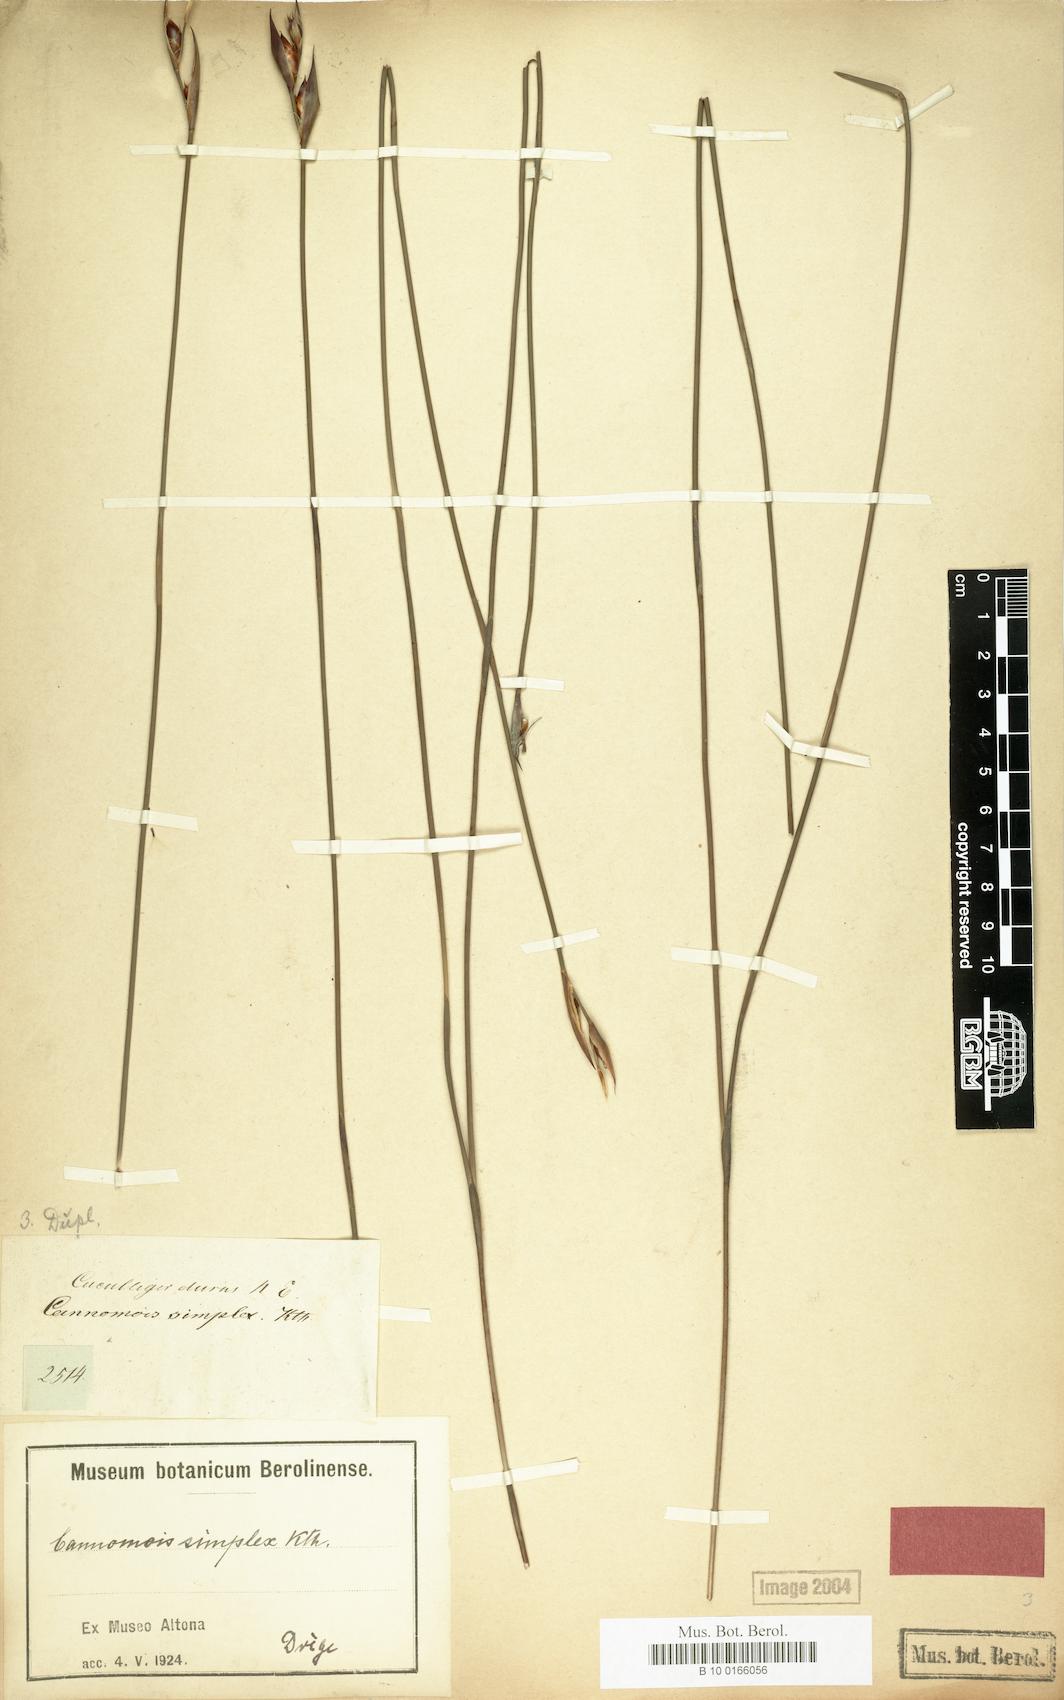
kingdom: Plantae
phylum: Tracheophyta
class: Liliopsida
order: Poales
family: Restionaceae
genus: Cannomois
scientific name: Cannomois parviflora
